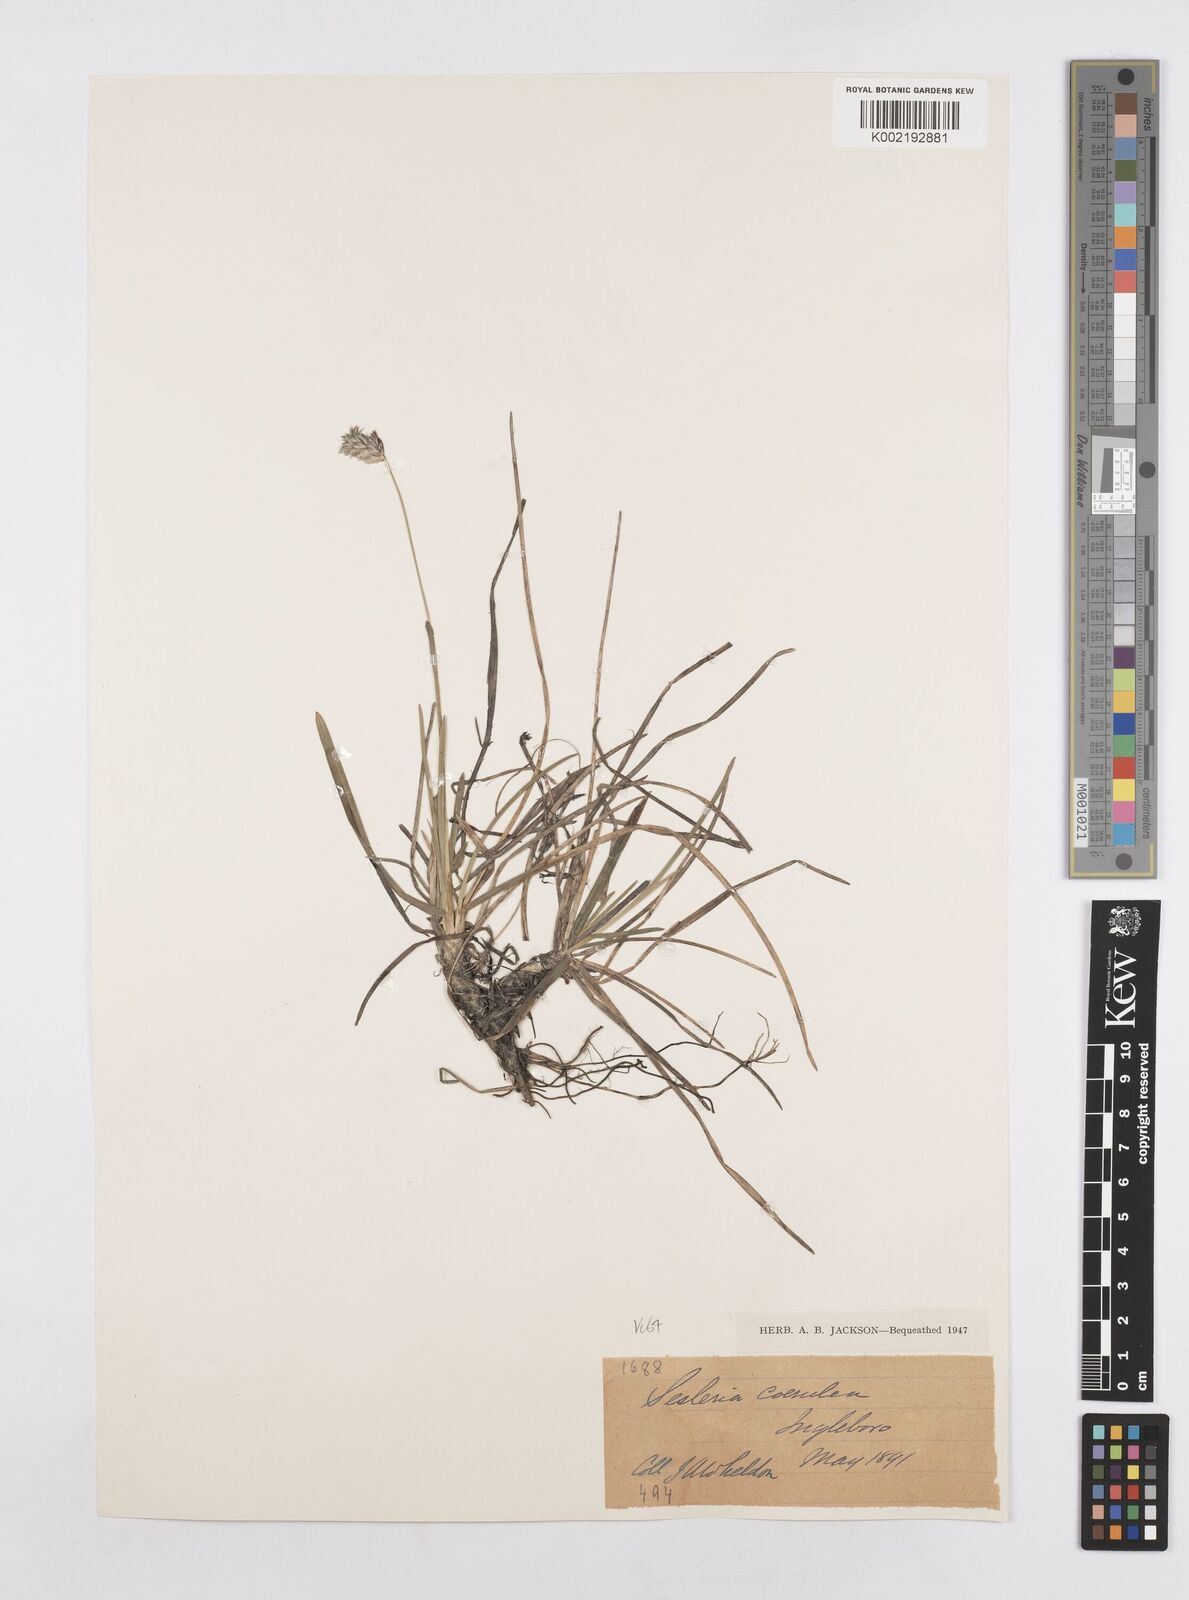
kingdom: Plantae
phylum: Tracheophyta
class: Liliopsida
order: Poales
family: Poaceae
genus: Sesleria
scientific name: Sesleria caerulea
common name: Blue moor-grass
